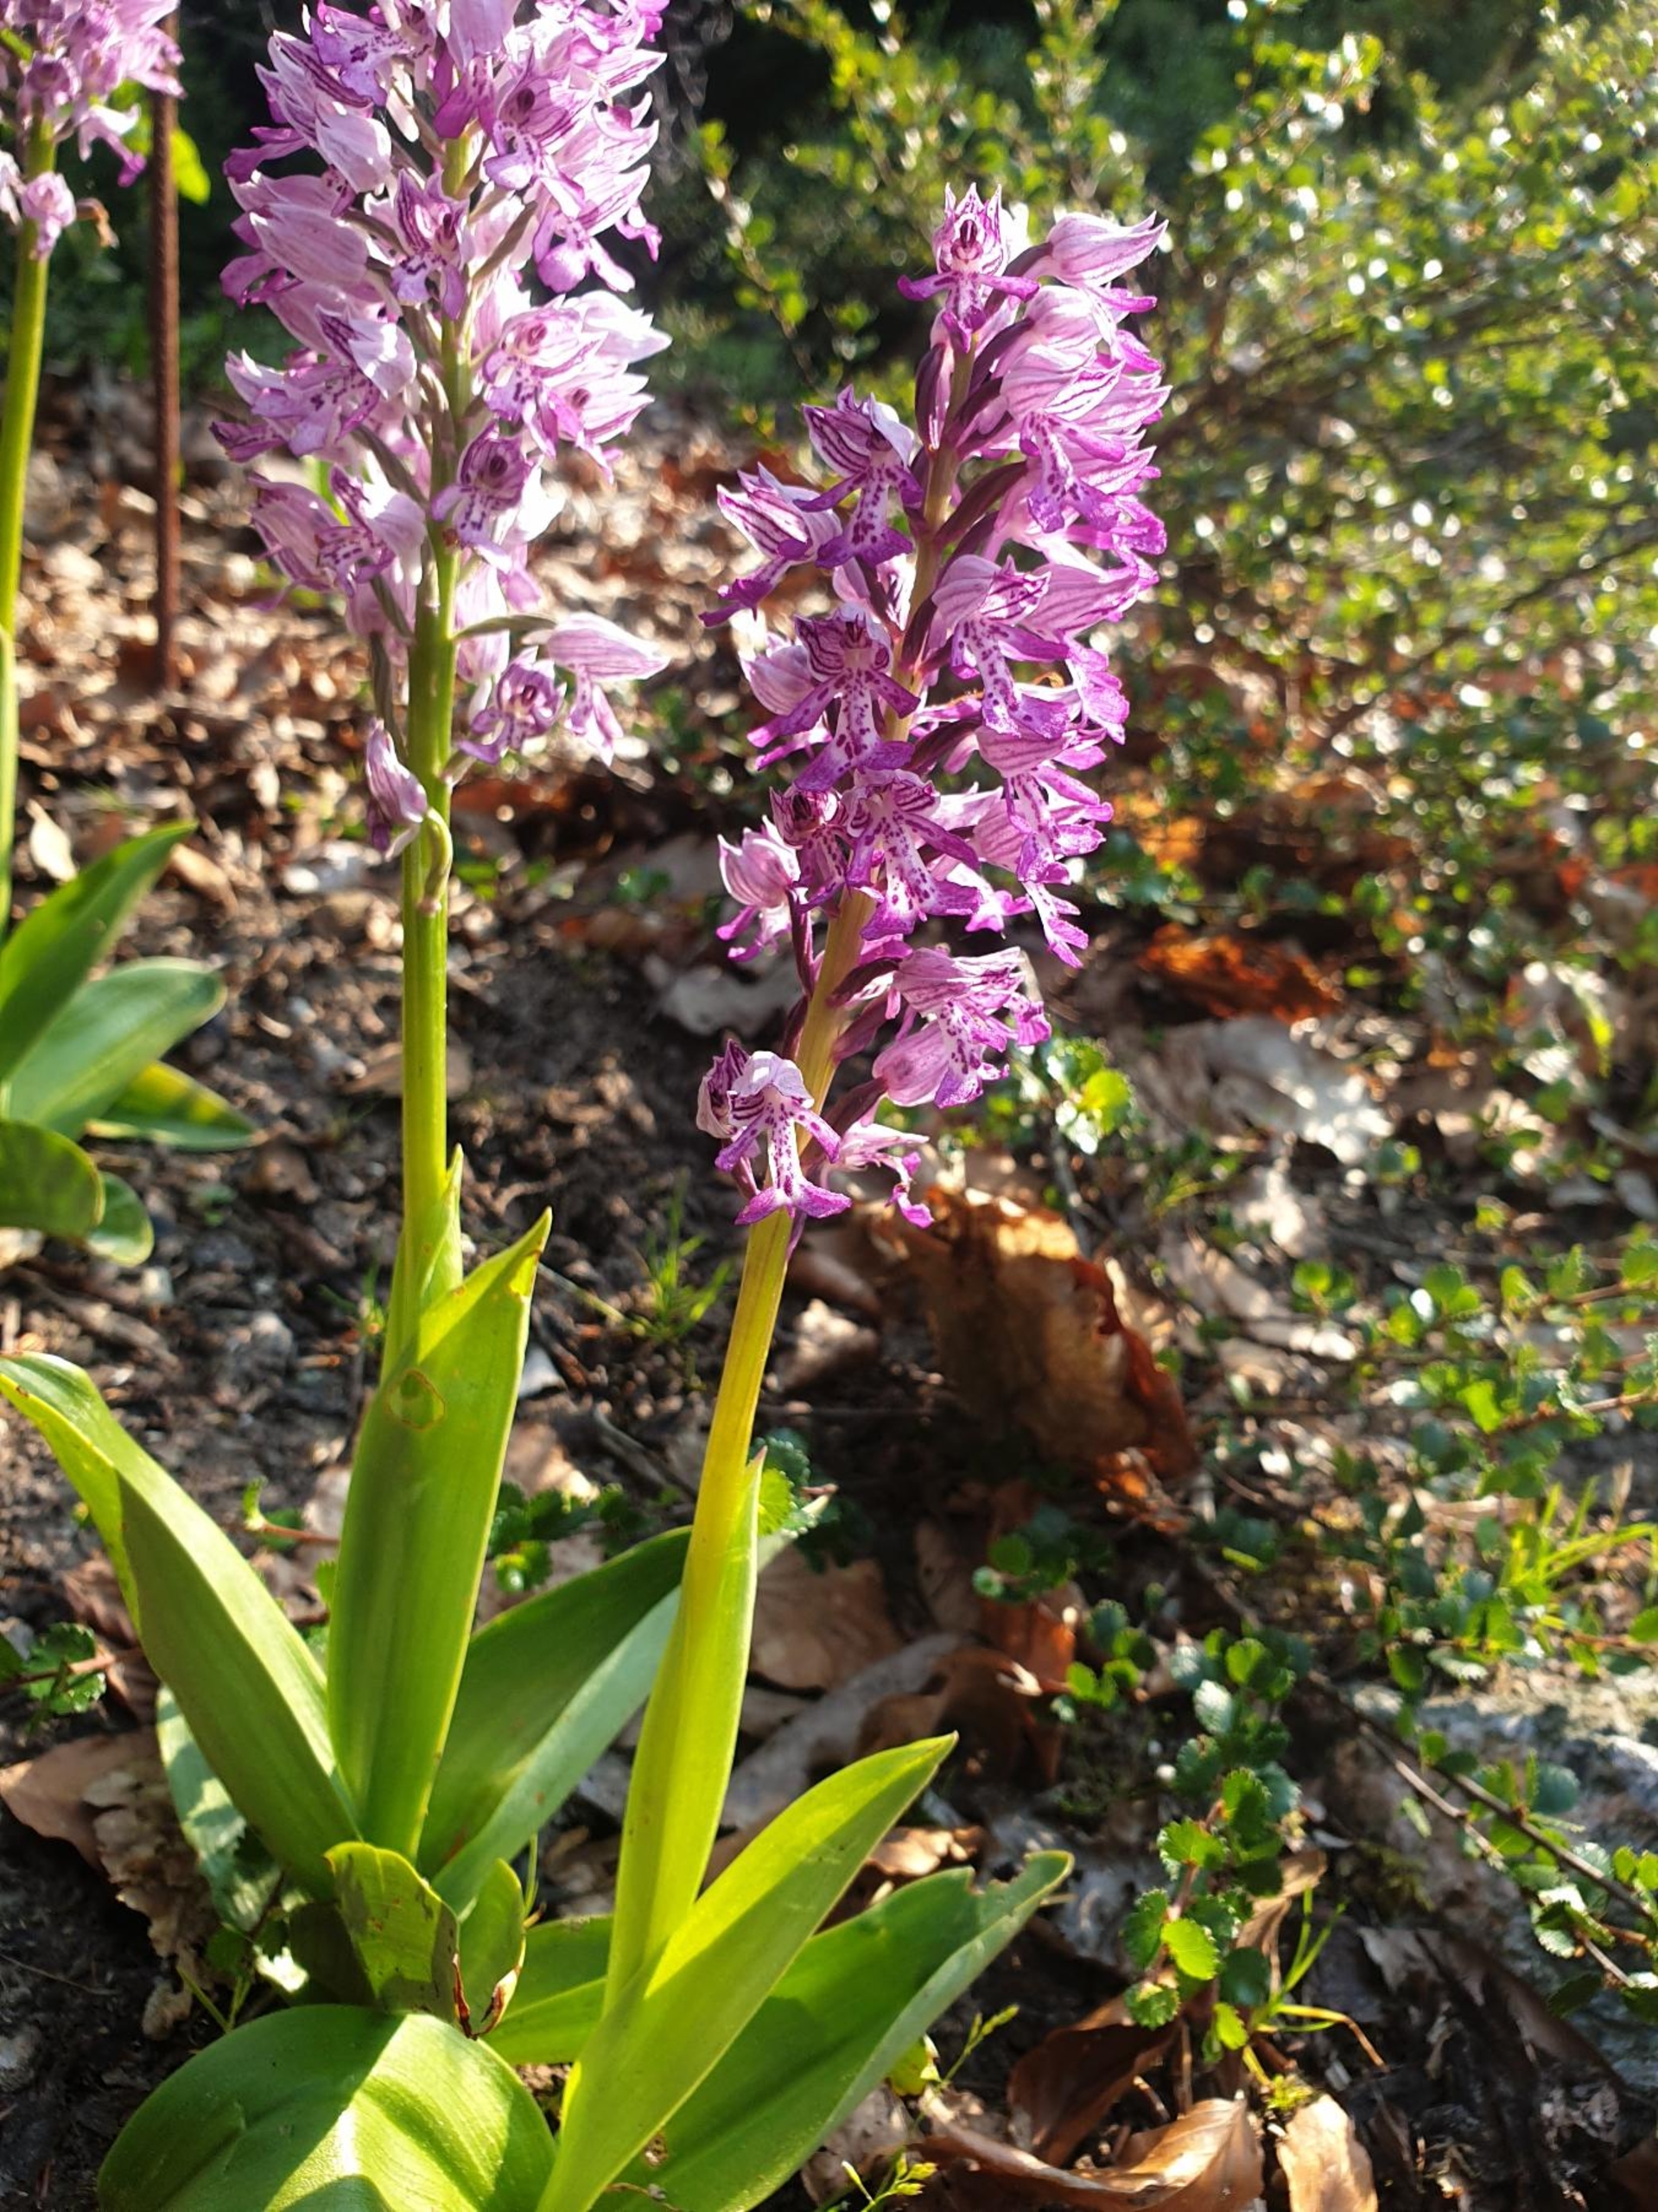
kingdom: Plantae
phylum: Tracheophyta
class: Liliopsida
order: Asparagales
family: Orchidaceae
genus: Orchis
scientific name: Orchis militaris
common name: Ridder-gøgeurt
